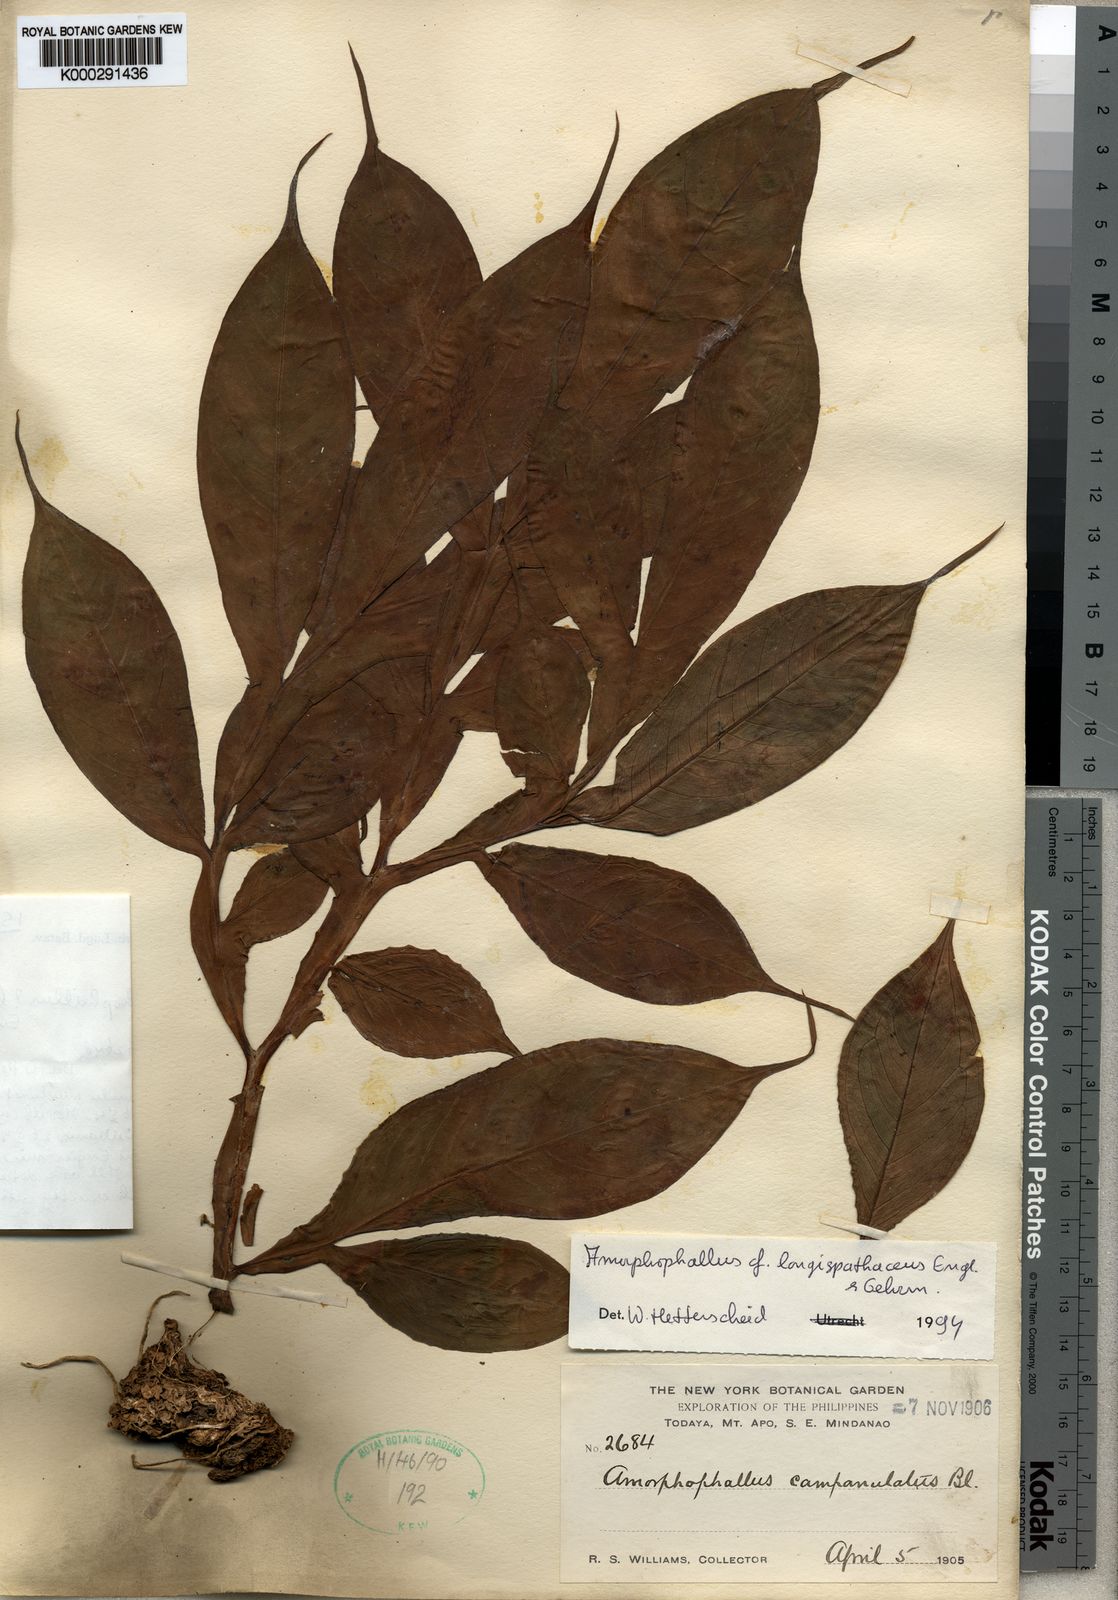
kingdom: Plantae
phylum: Tracheophyta
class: Liliopsida
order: Alismatales
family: Araceae
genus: Amorphophallus
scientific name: Amorphophallus longispathaceus
